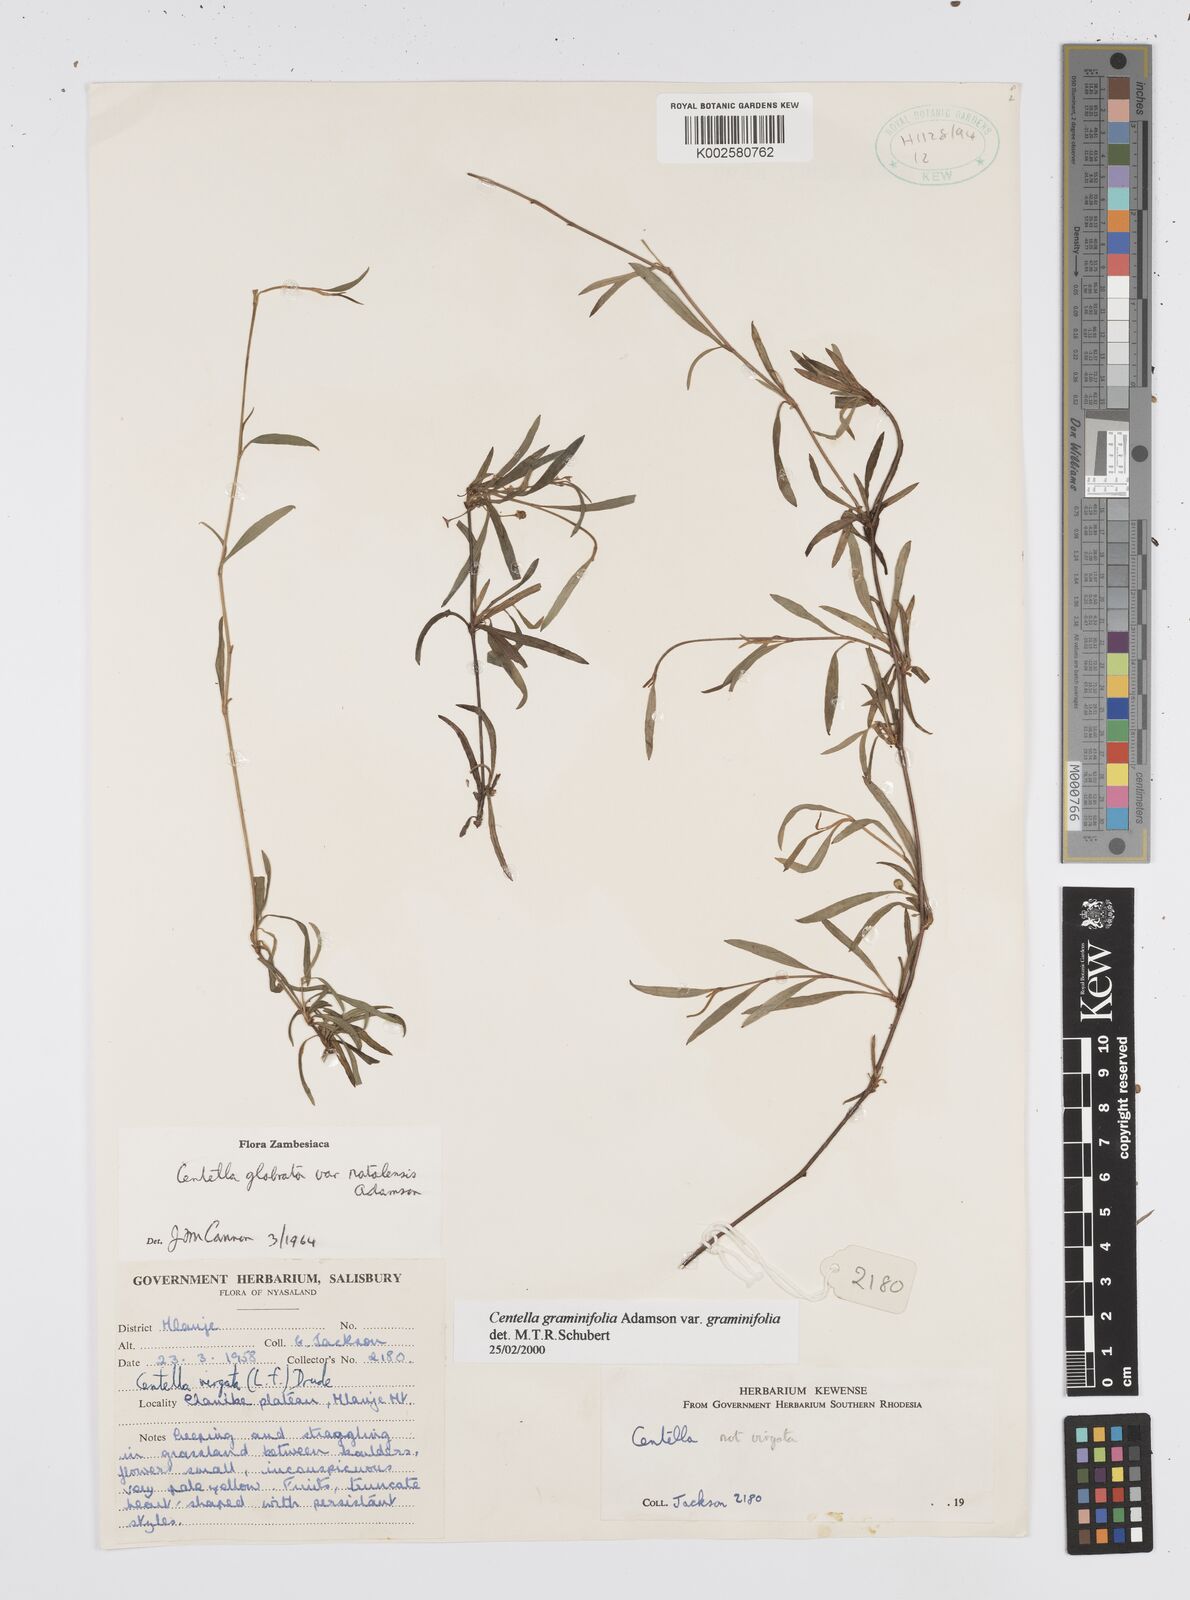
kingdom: Plantae
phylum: Tracheophyta
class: Magnoliopsida
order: Apiales
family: Apiaceae
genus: Centella
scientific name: Centella graminifolia
